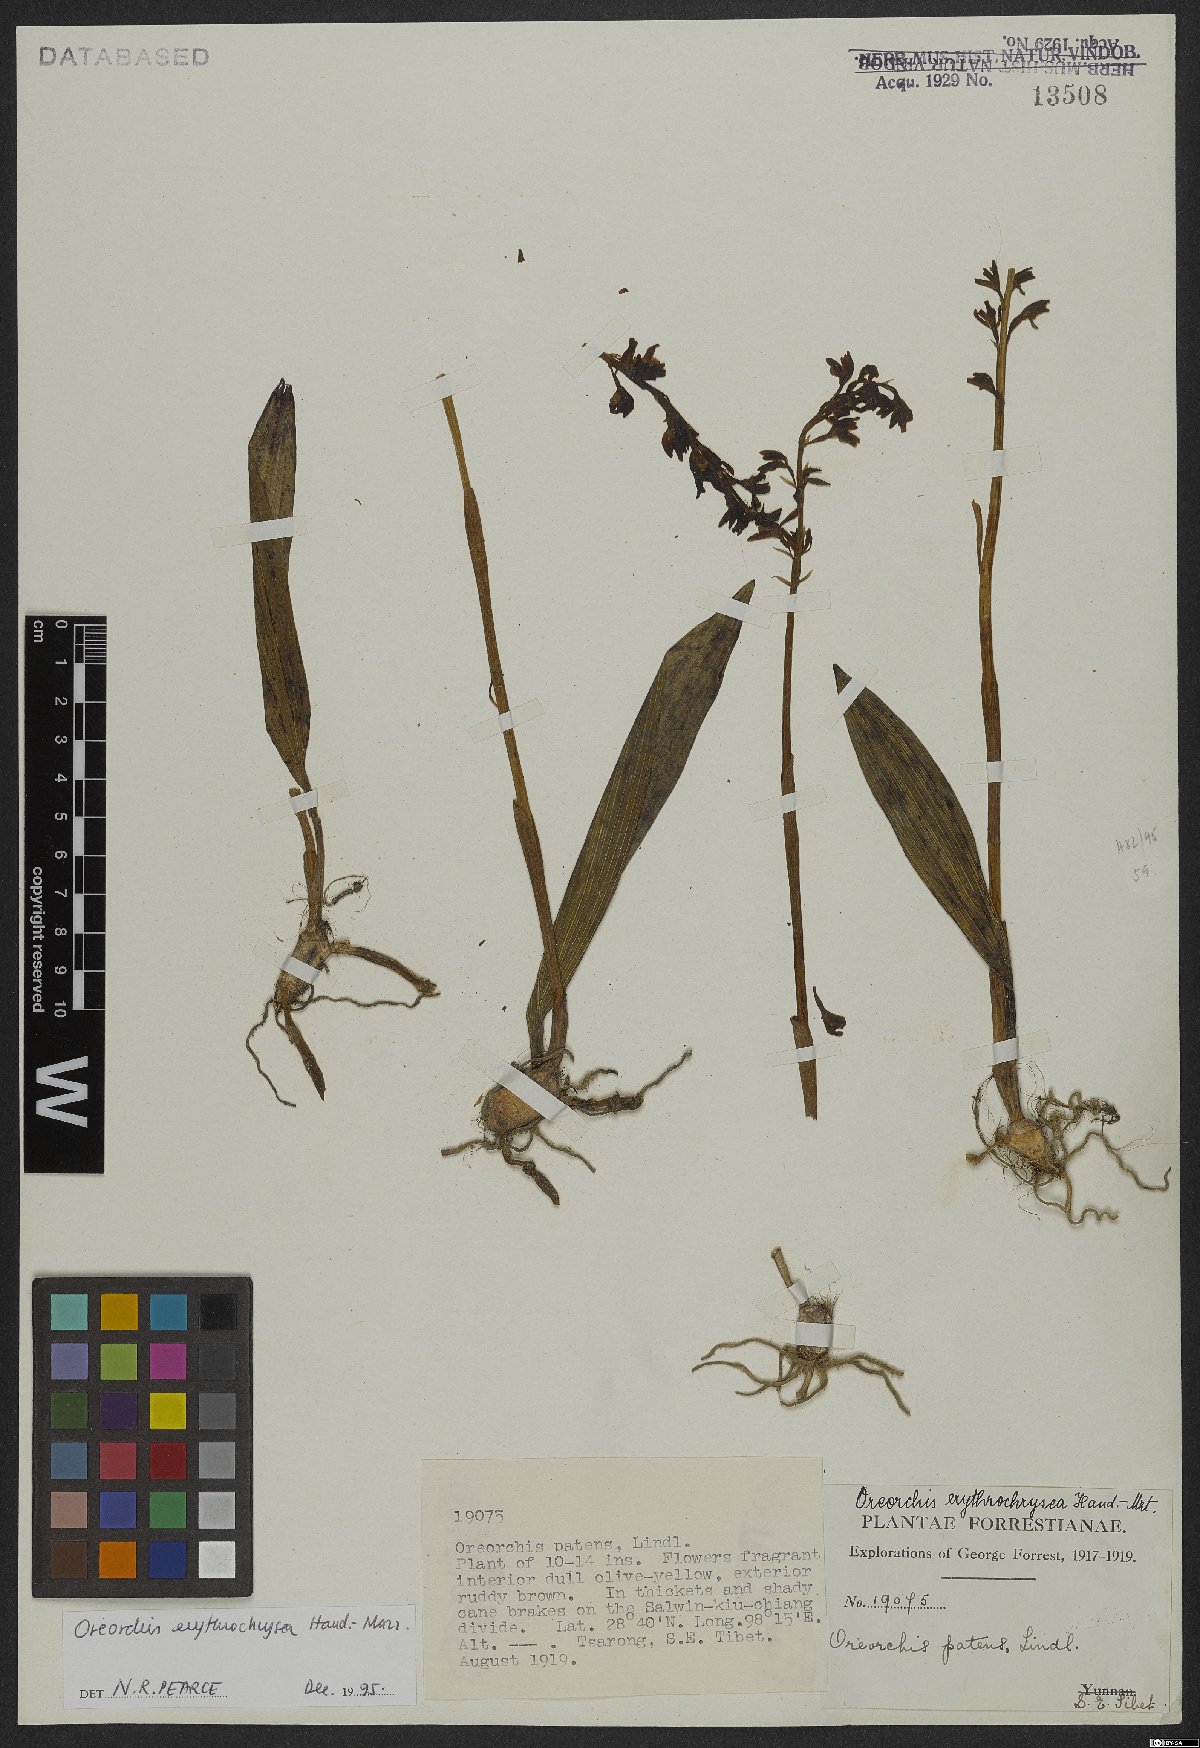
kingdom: Plantae
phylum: Tracheophyta
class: Liliopsida
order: Asparagales
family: Orchidaceae
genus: Oreorchis
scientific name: Oreorchis erythrochrysea
